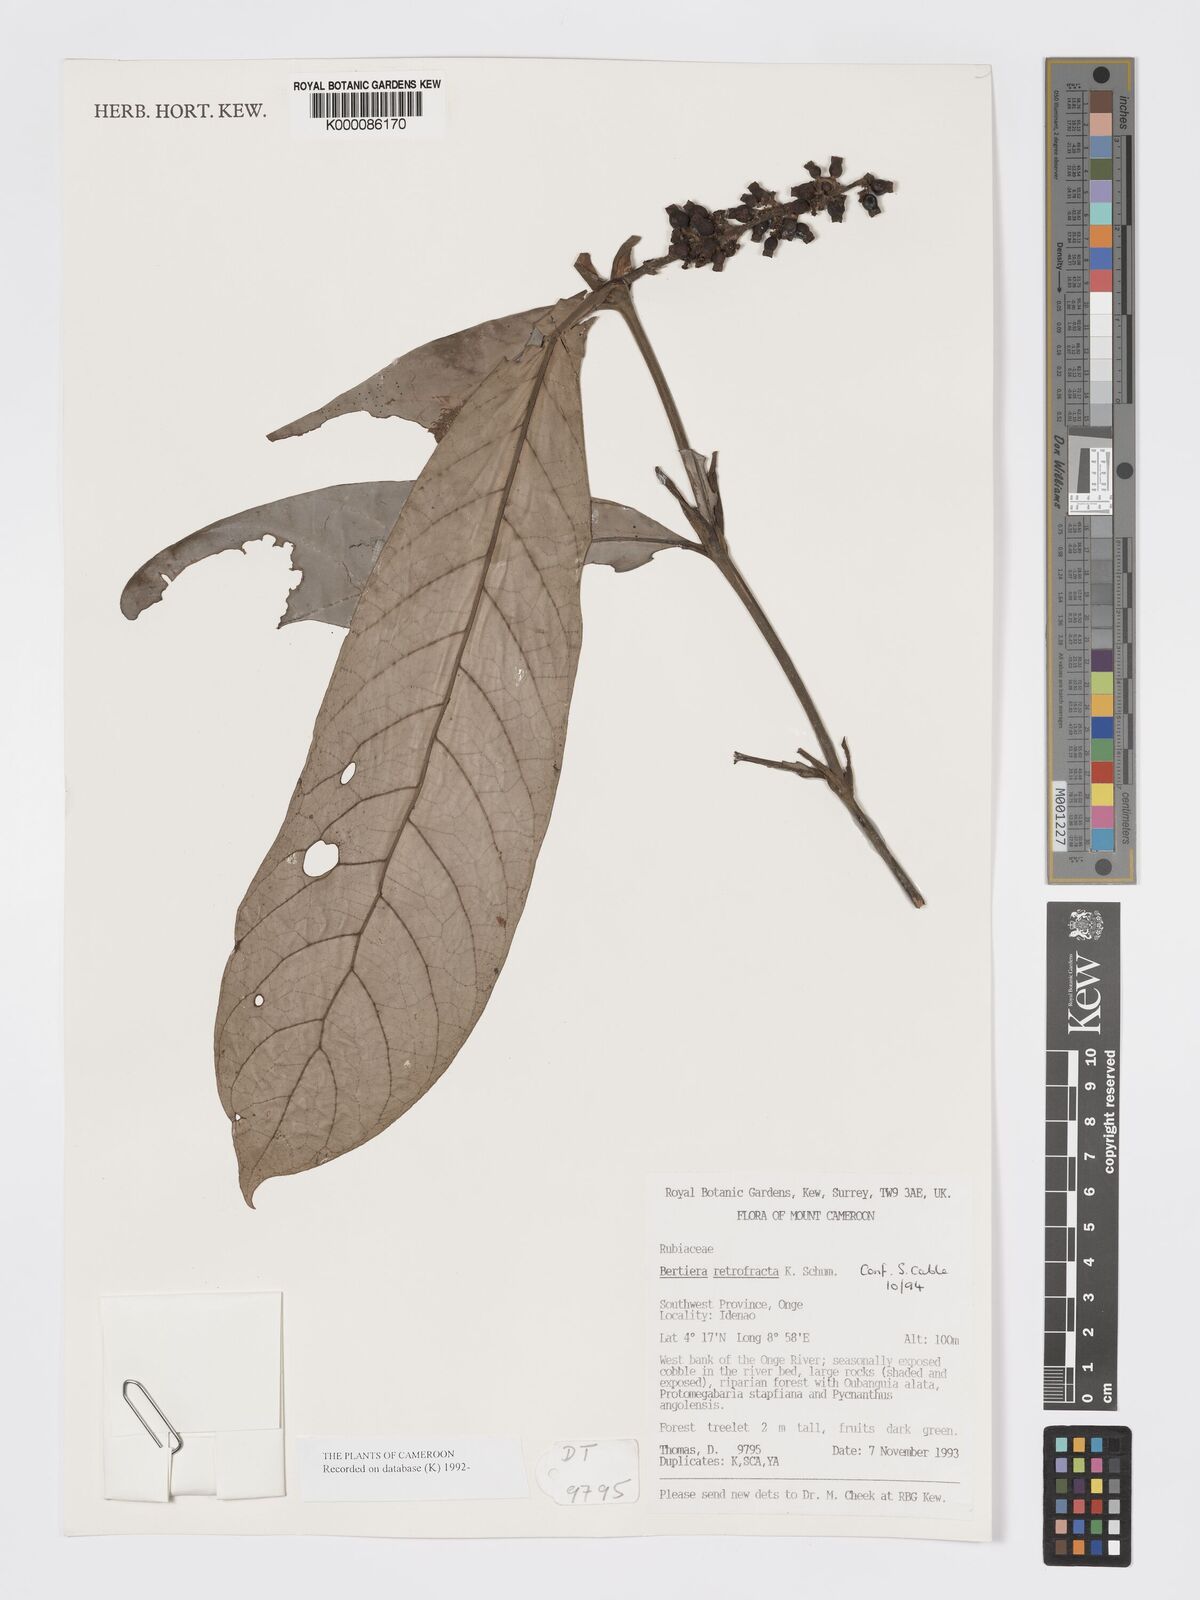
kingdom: Plantae
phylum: Tracheophyta
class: Magnoliopsida
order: Gentianales
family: Rubiaceae
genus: Bertiera
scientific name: Bertiera retrofracta
